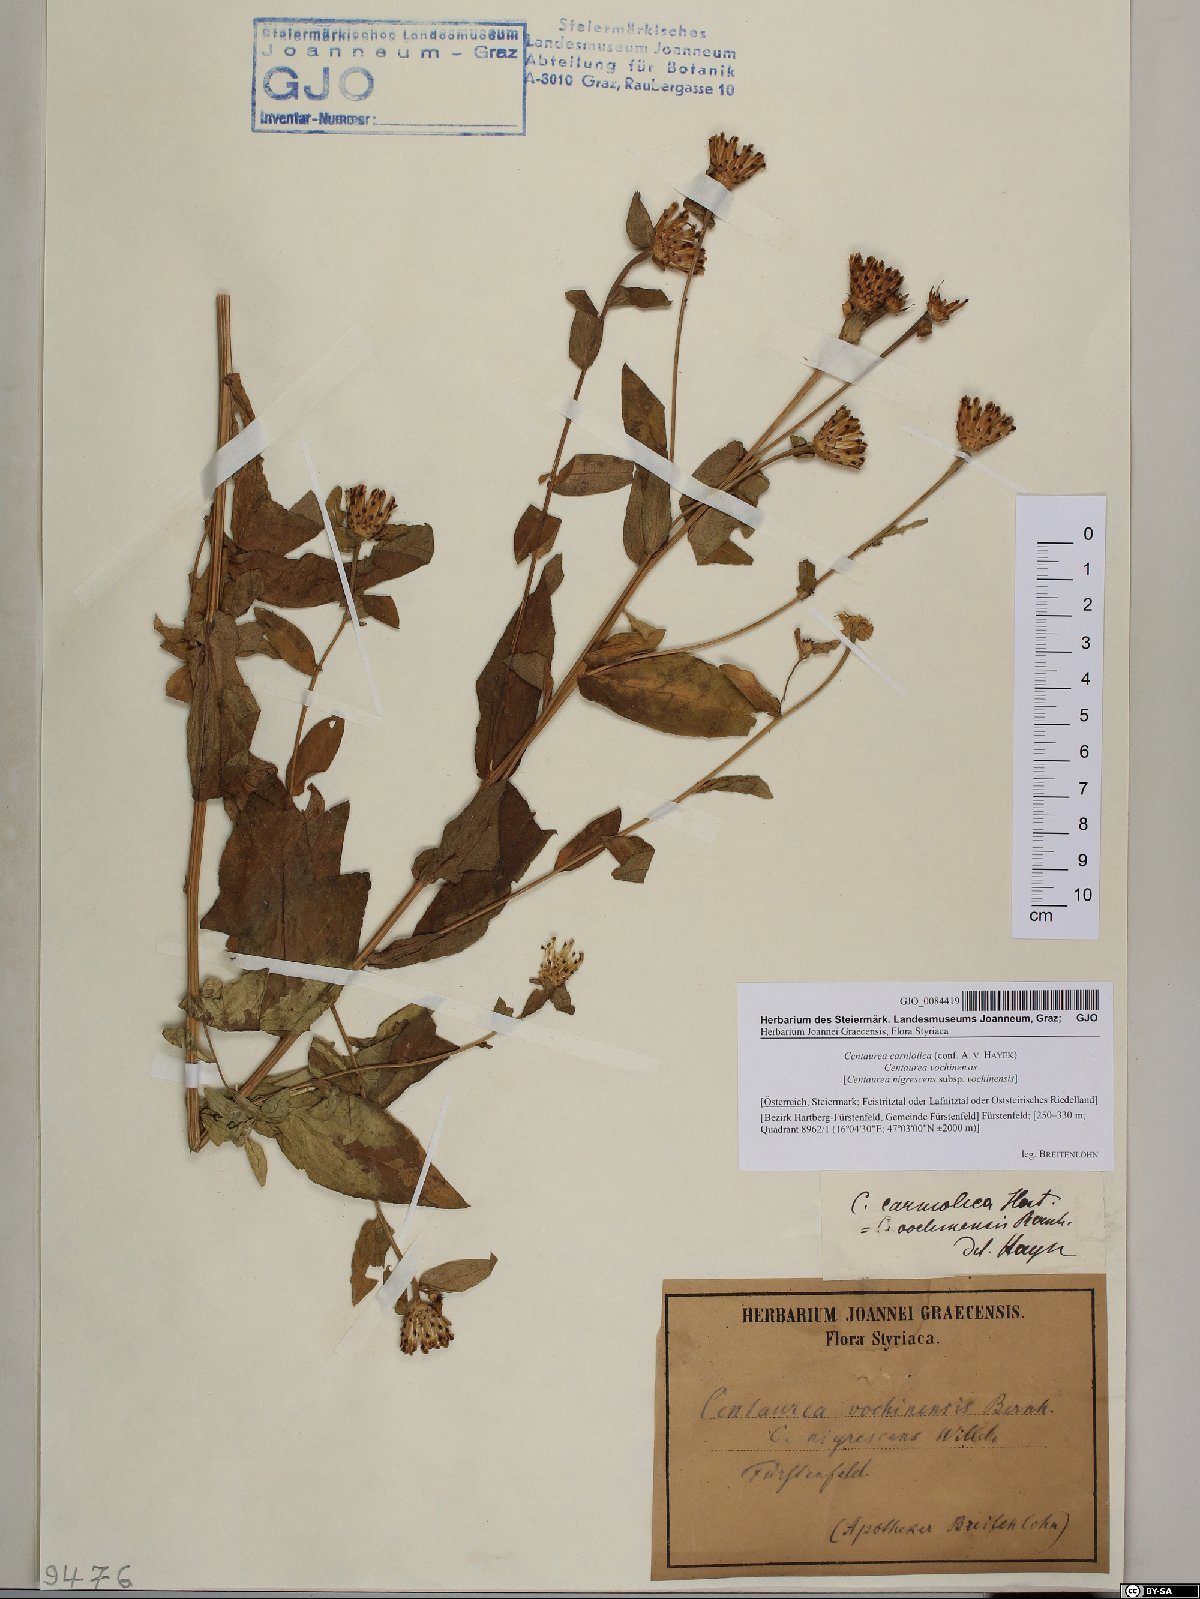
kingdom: Plantae
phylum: Tracheophyta
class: Magnoliopsida
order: Asterales
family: Asteraceae
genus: Centaurea
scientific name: Centaurea carniolica
